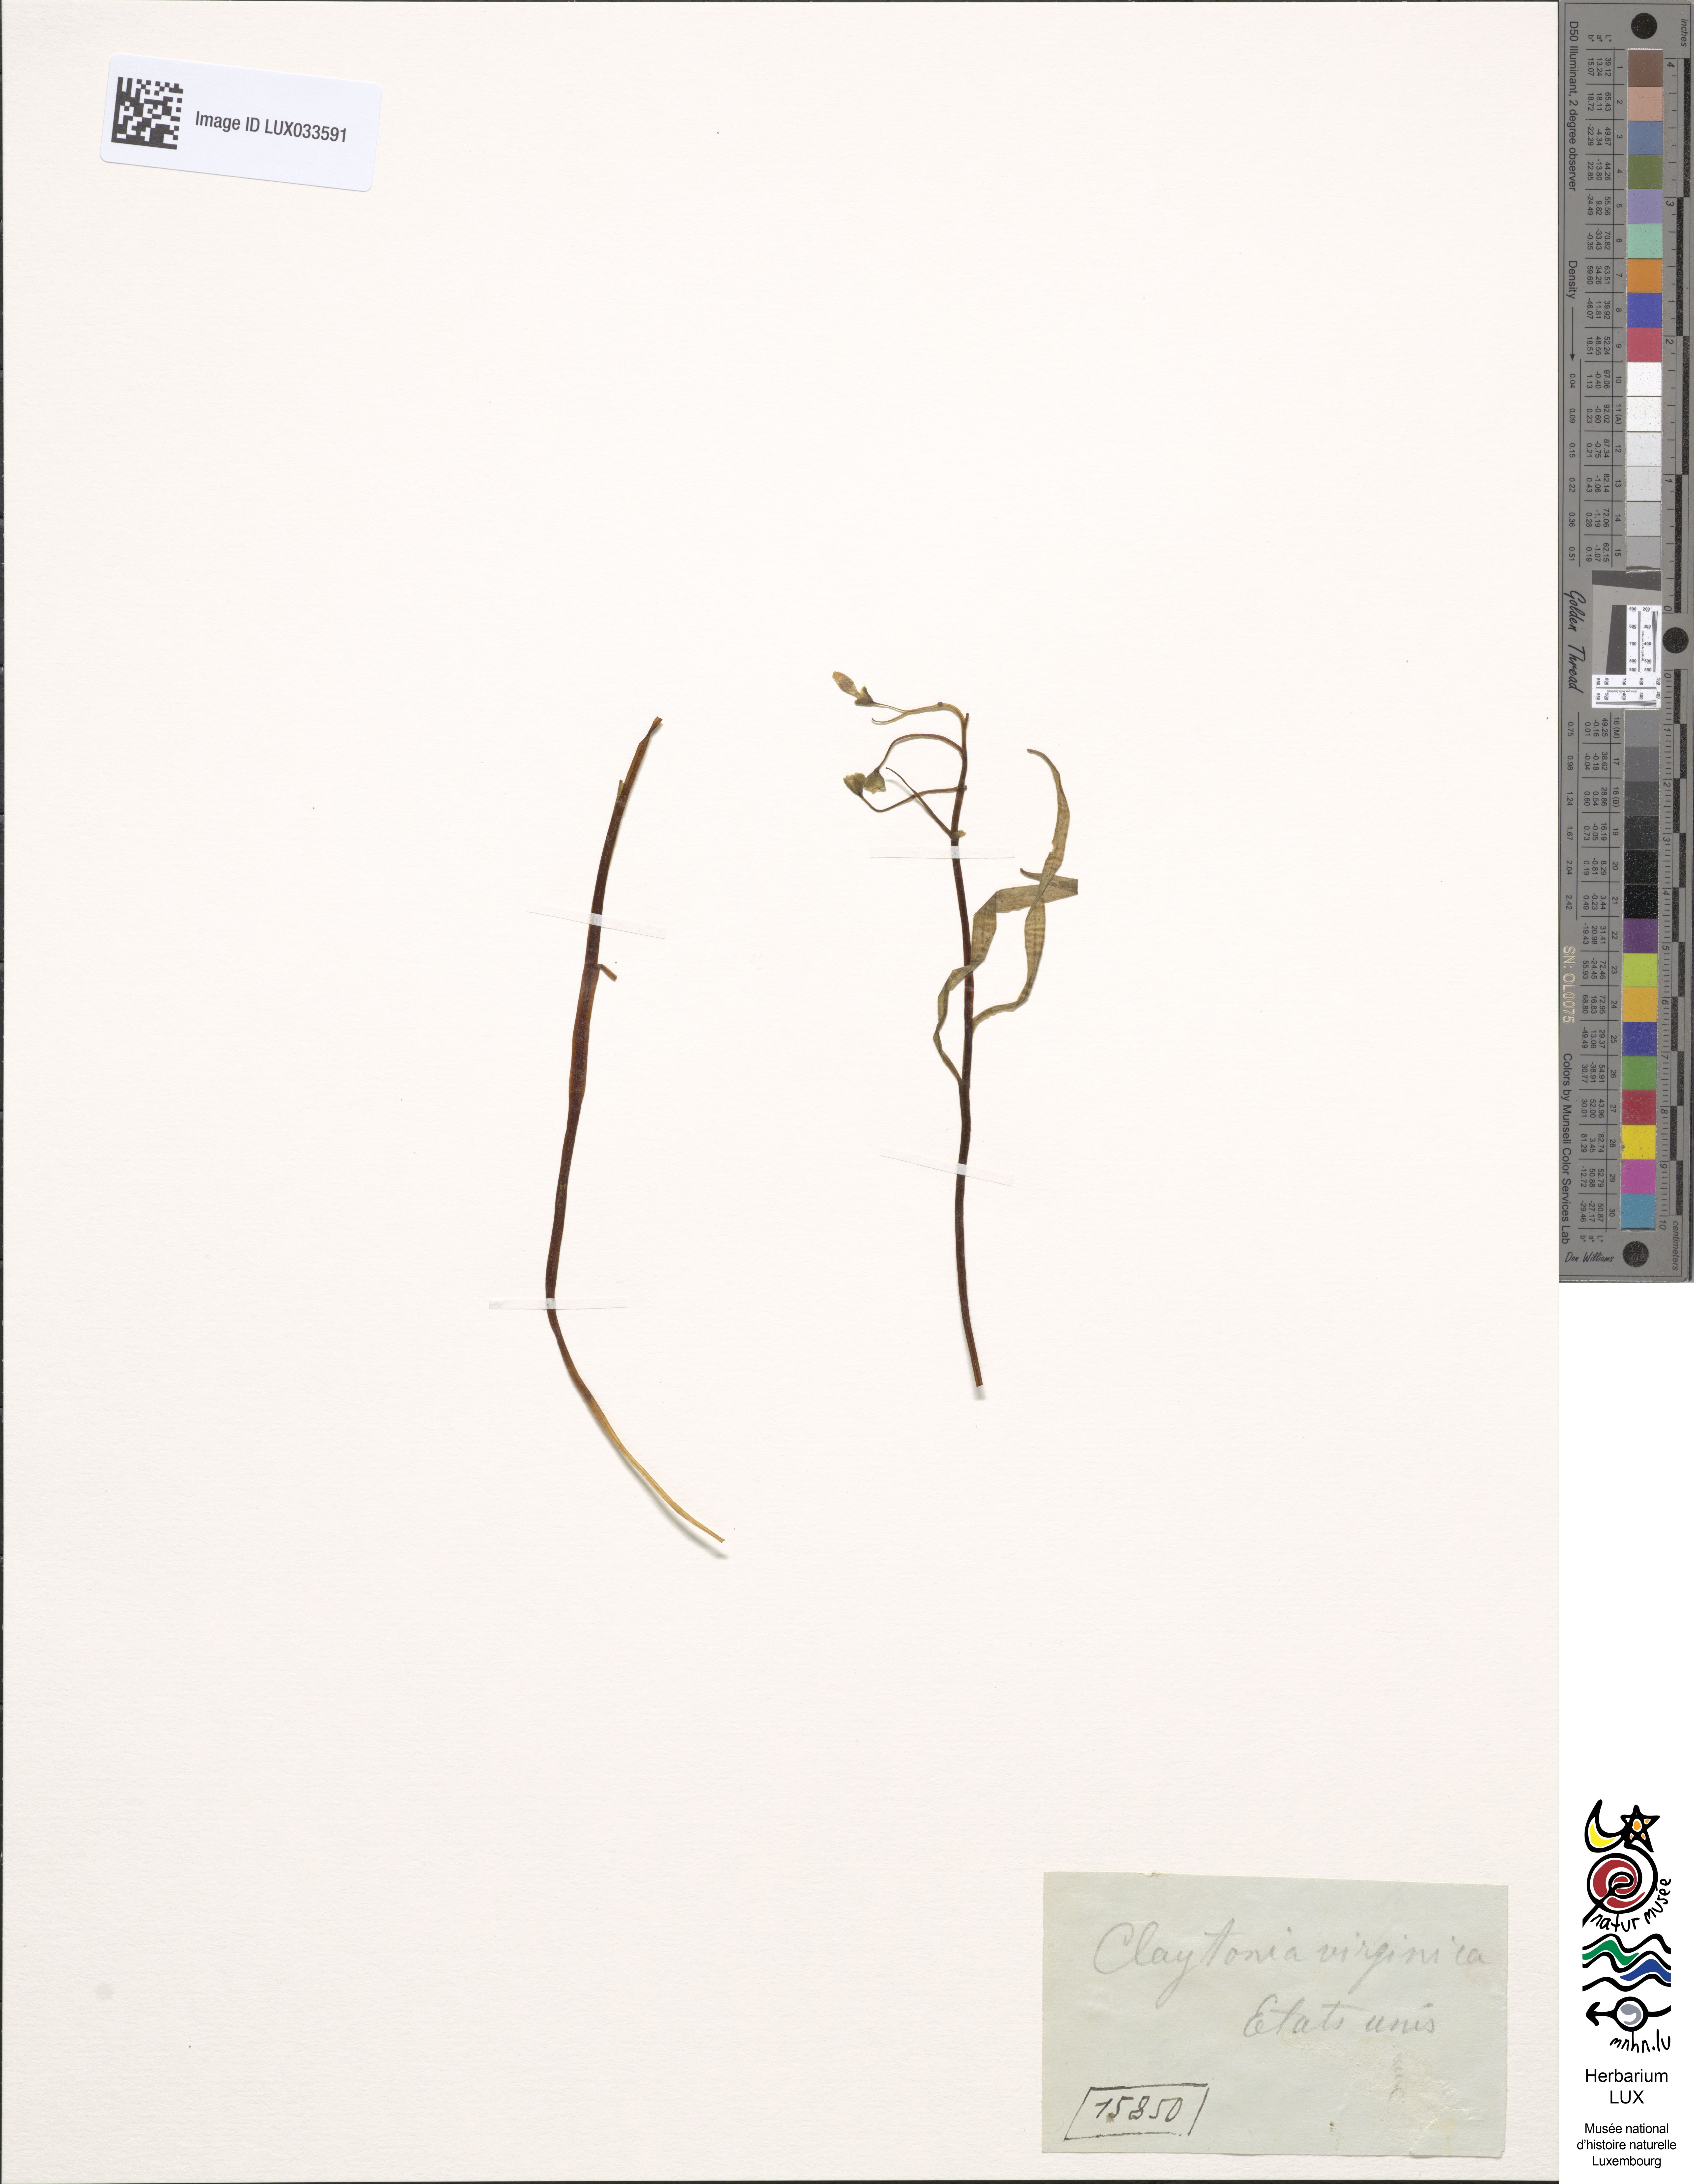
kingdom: Plantae
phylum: Tracheophyta
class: Magnoliopsida
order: Caryophyllales
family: Montiaceae
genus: Claytonia
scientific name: Claytonia virginica
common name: Virginia springbeauty
